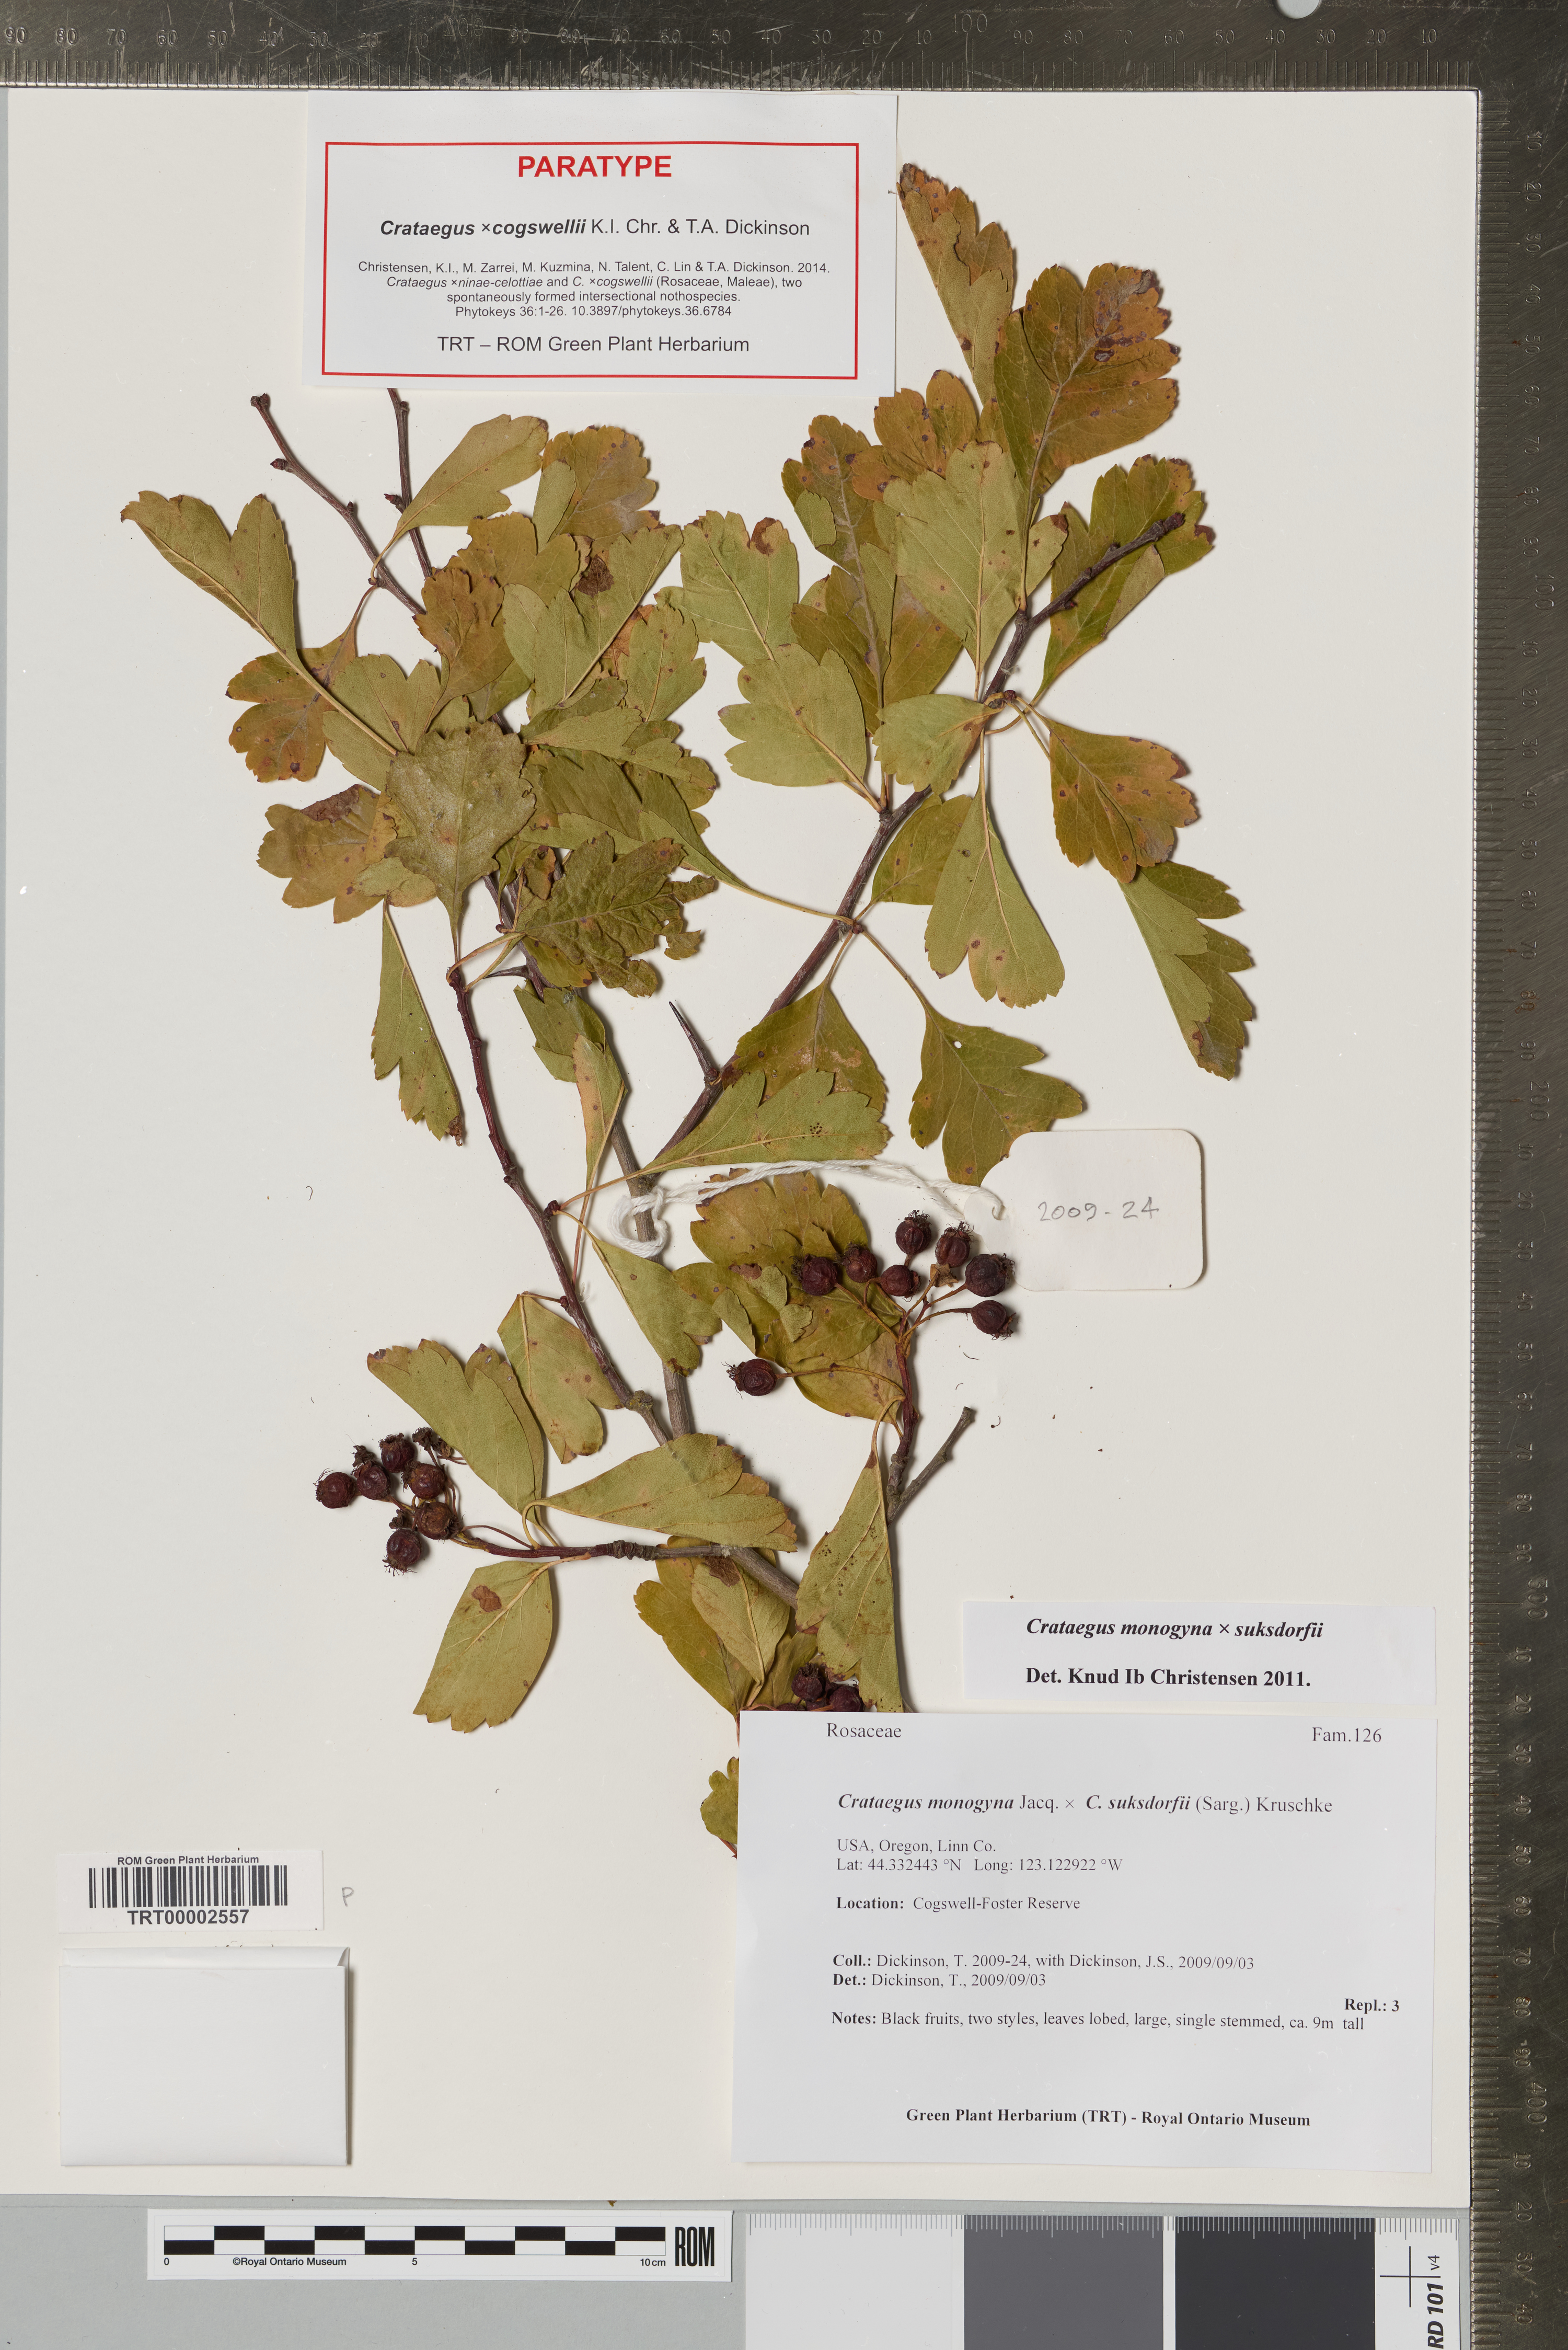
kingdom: Plantae
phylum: Tracheophyta
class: Magnoliopsida
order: Rosales
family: Rosaceae
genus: Crataegus
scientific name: Crataegus
